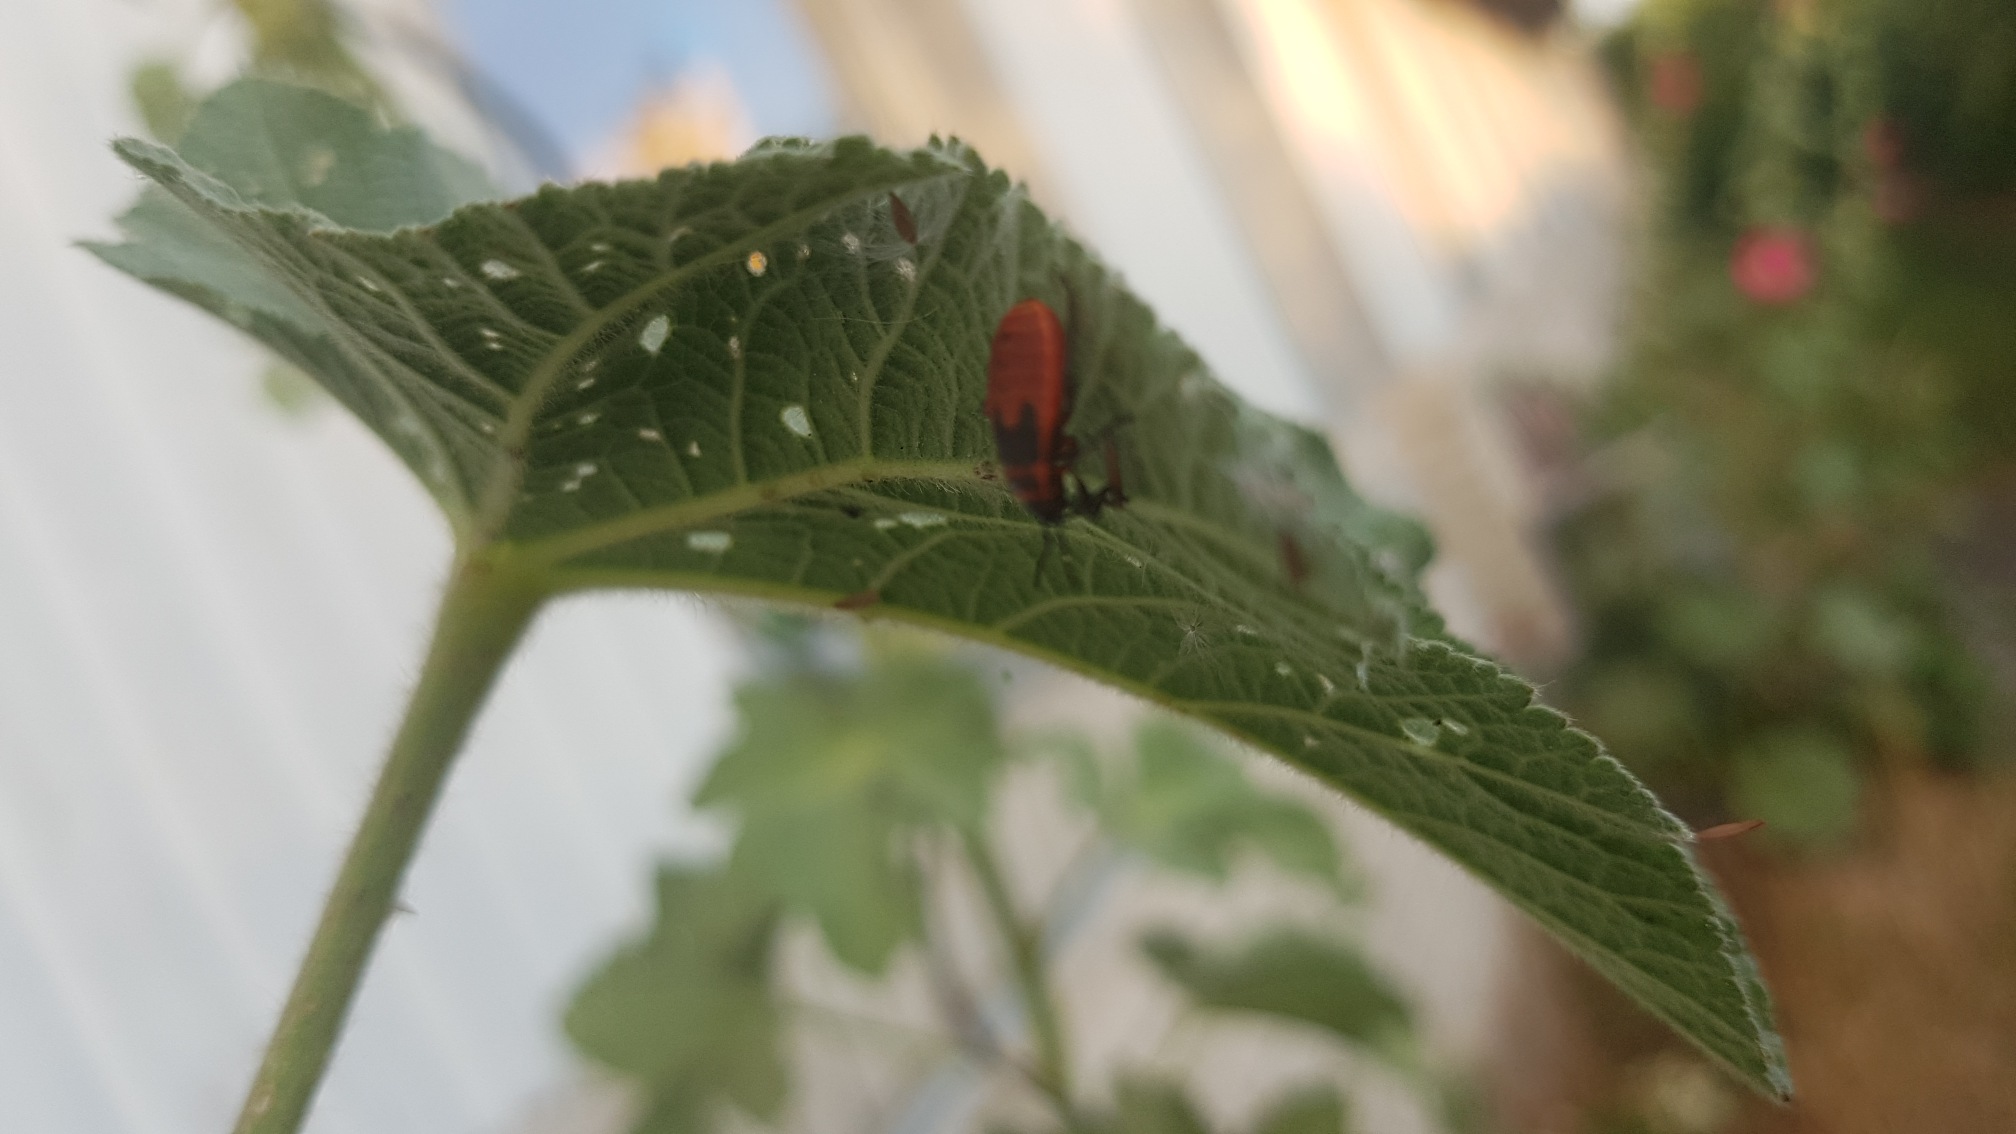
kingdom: Animalia
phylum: Arthropoda
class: Insecta
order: Hemiptera
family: Pyrrhocoridae
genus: Pyrrhocoris
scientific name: Pyrrhocoris apterus
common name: Ildtæge
